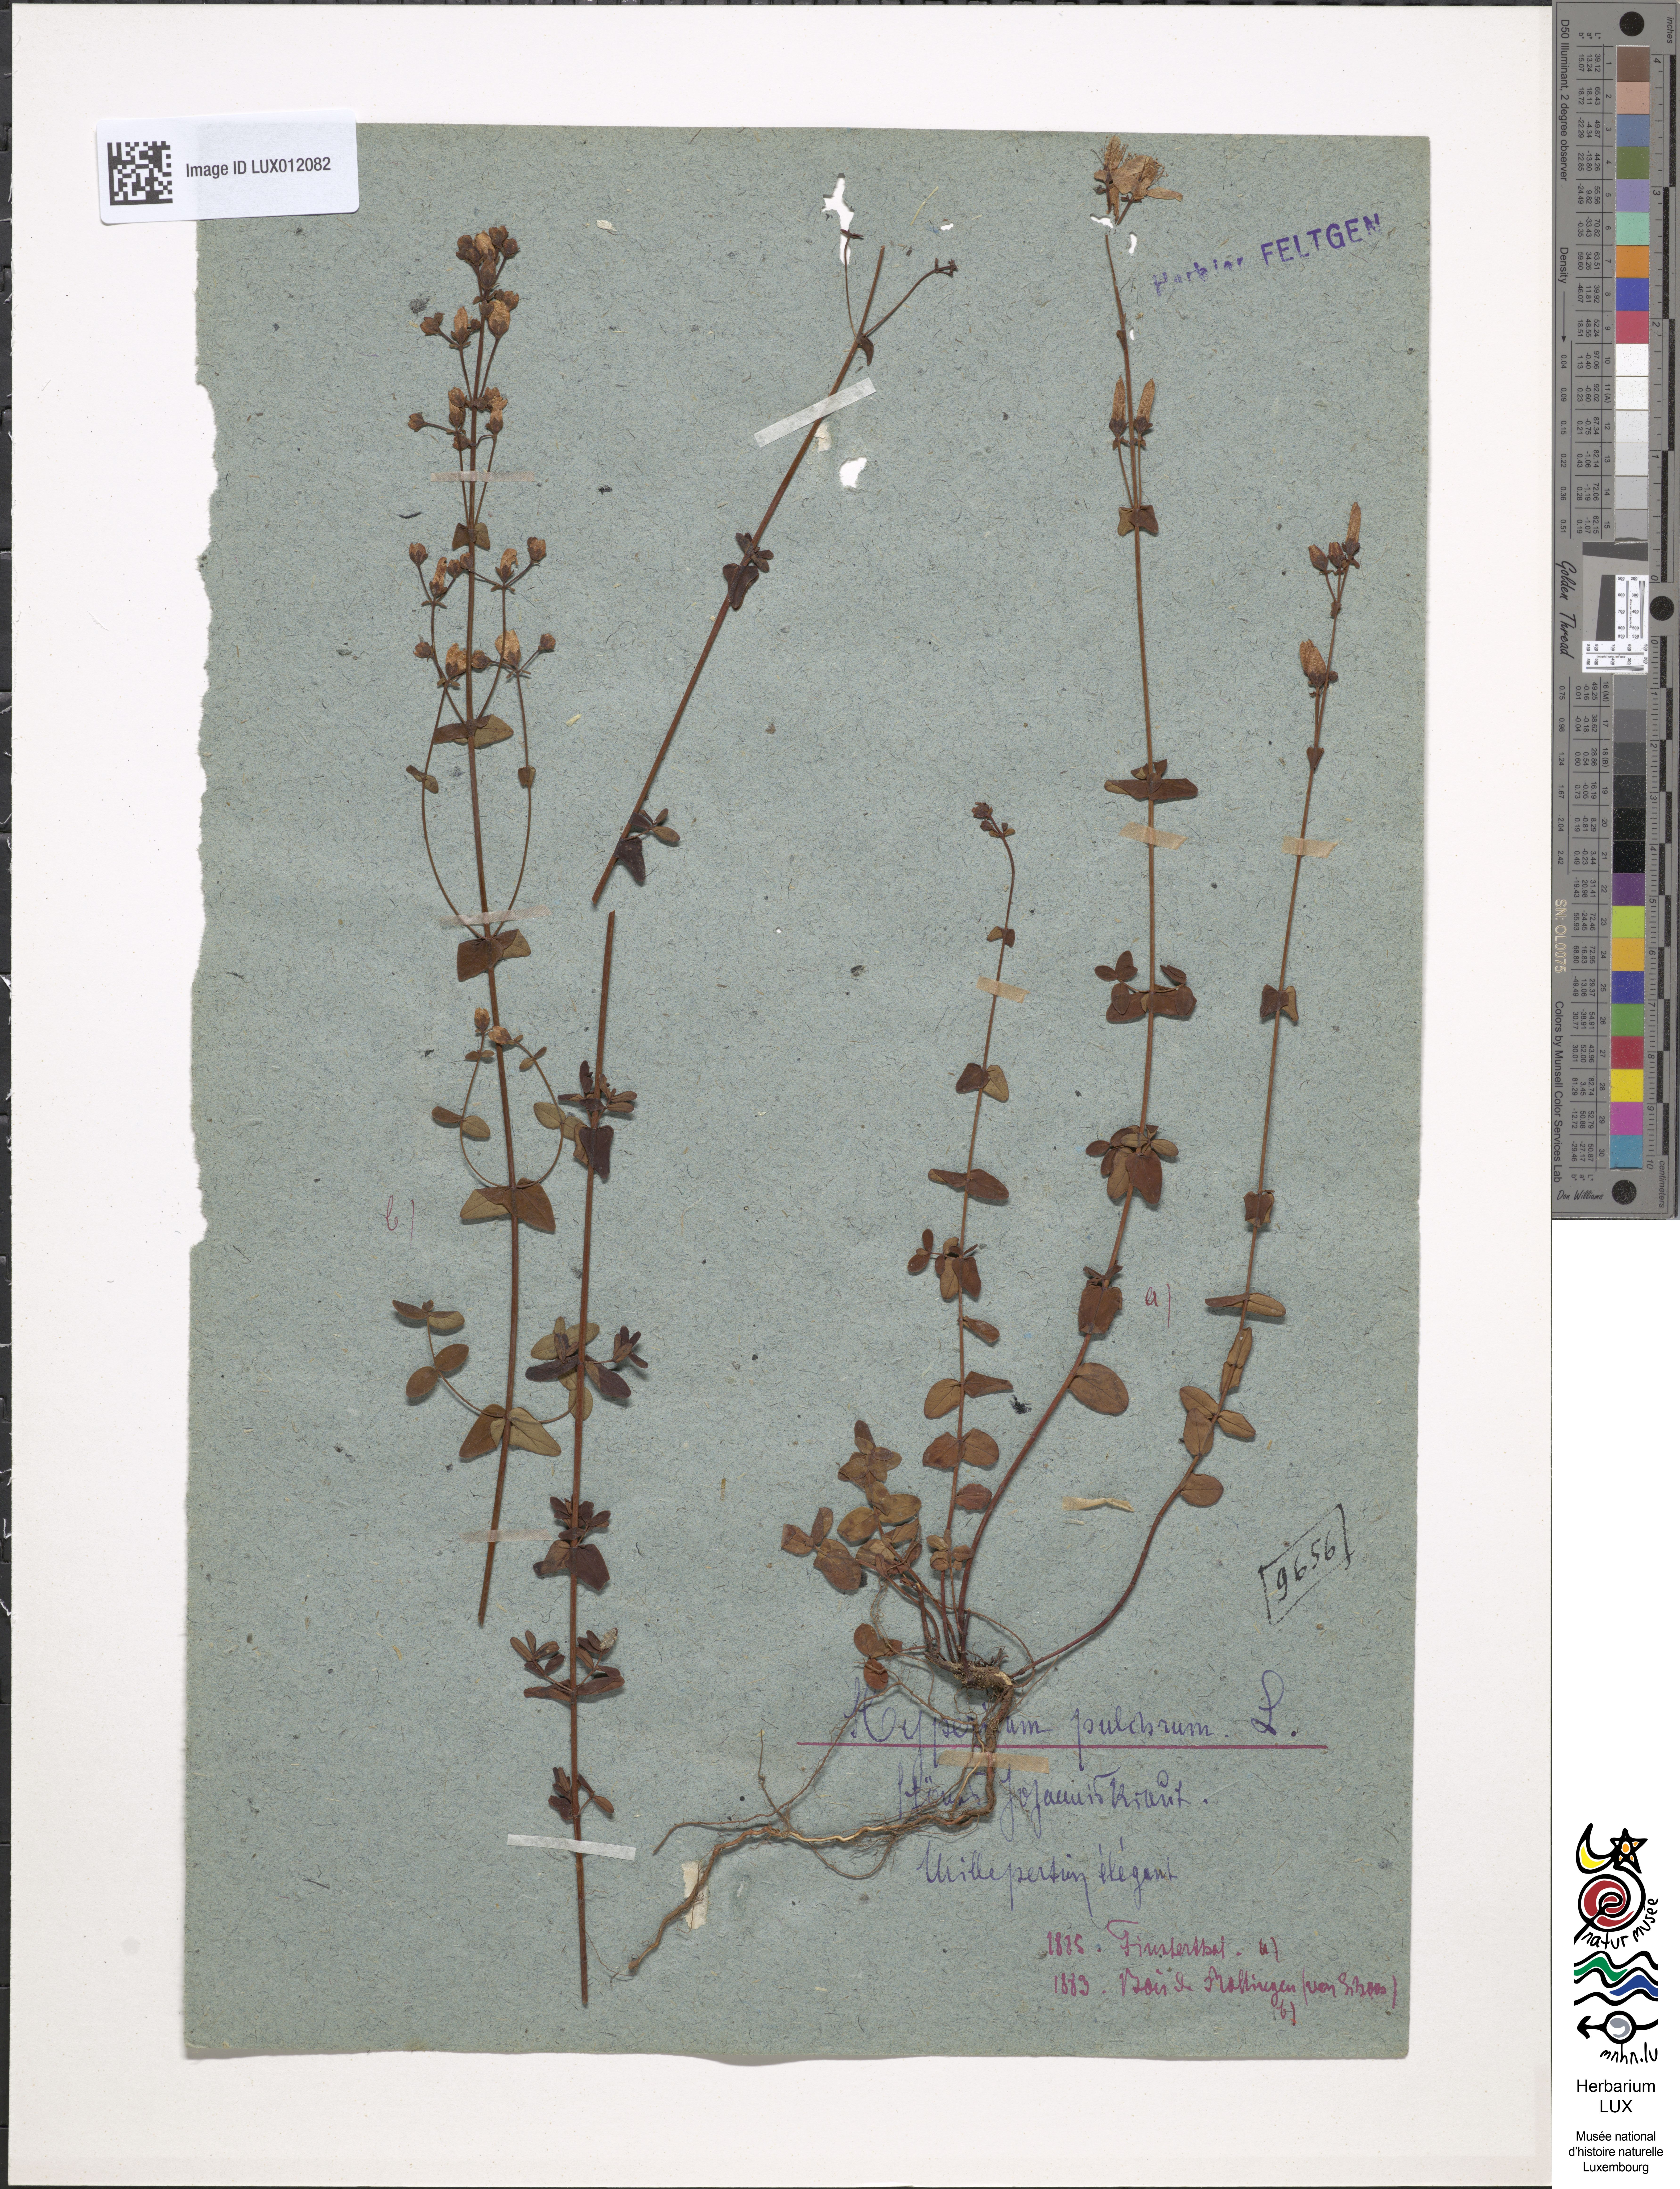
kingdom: Plantae
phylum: Tracheophyta
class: Magnoliopsida
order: Malpighiales
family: Hypericaceae
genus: Hypericum
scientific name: Hypericum pulchrum
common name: Slender st. john's-wort
